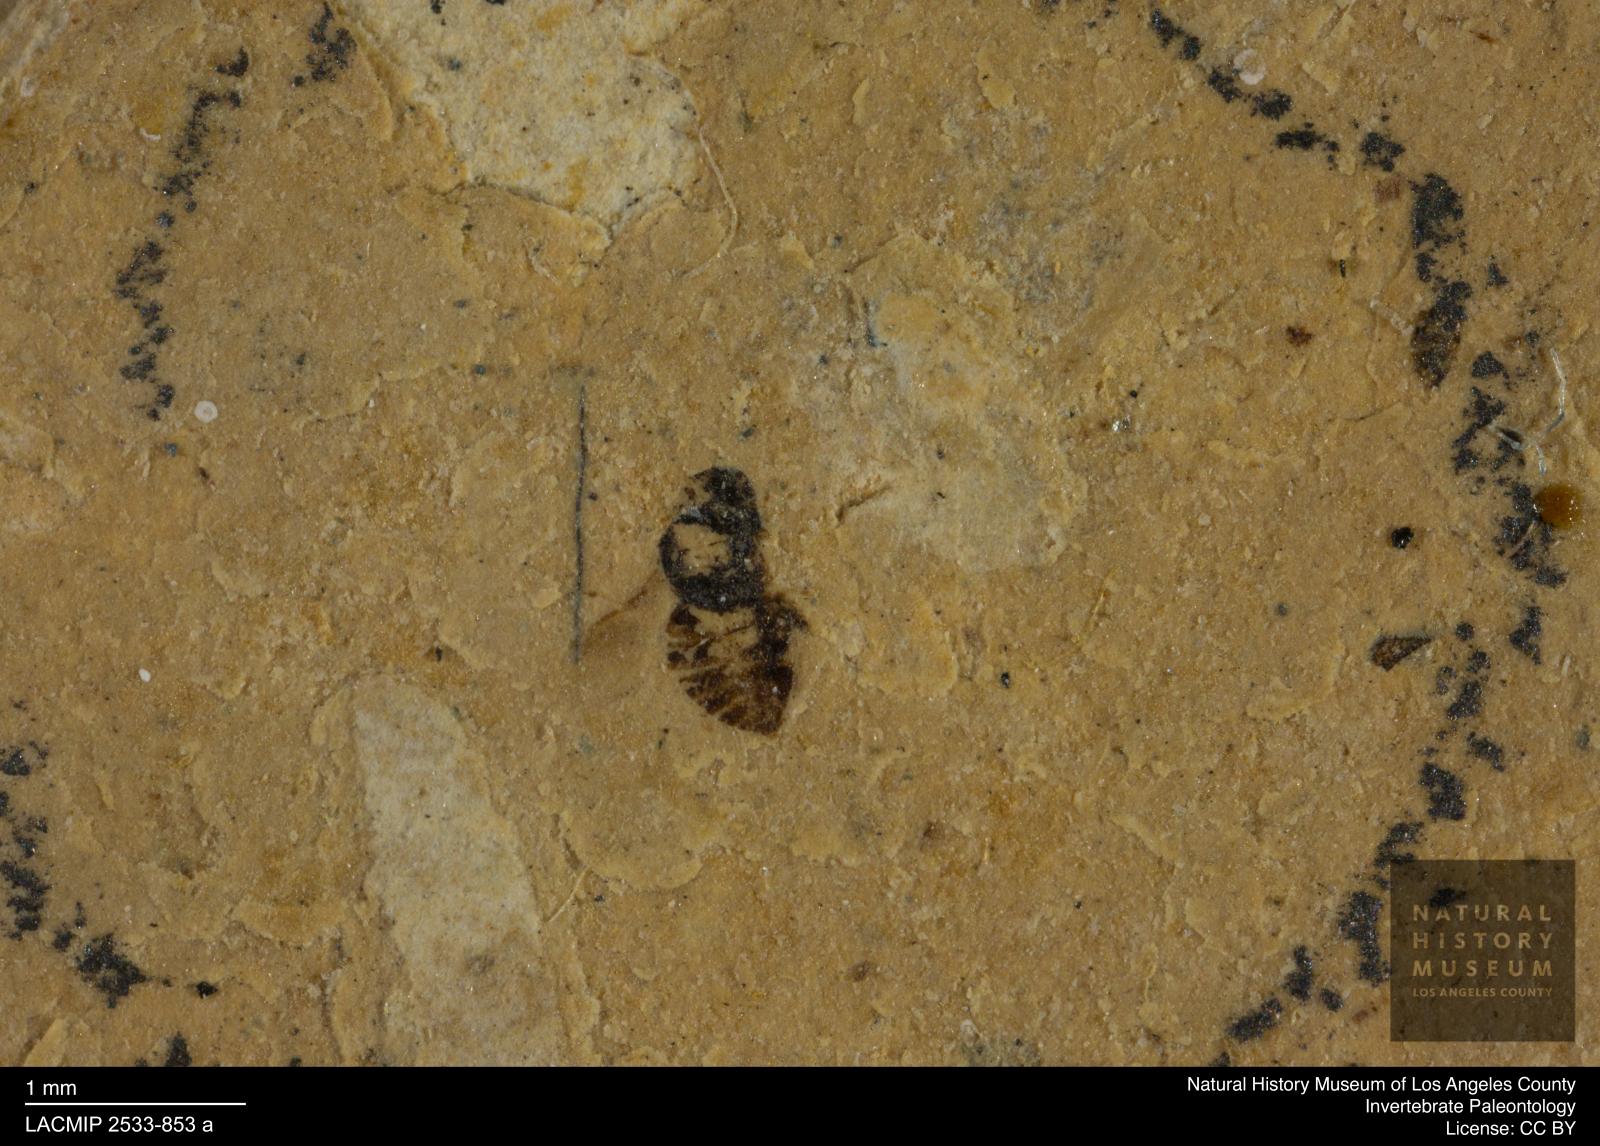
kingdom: Animalia
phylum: Arthropoda
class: Insecta
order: Hymenoptera
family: Pteromalidae
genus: Pteromalus
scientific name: Pteromalus pygmaeolus
